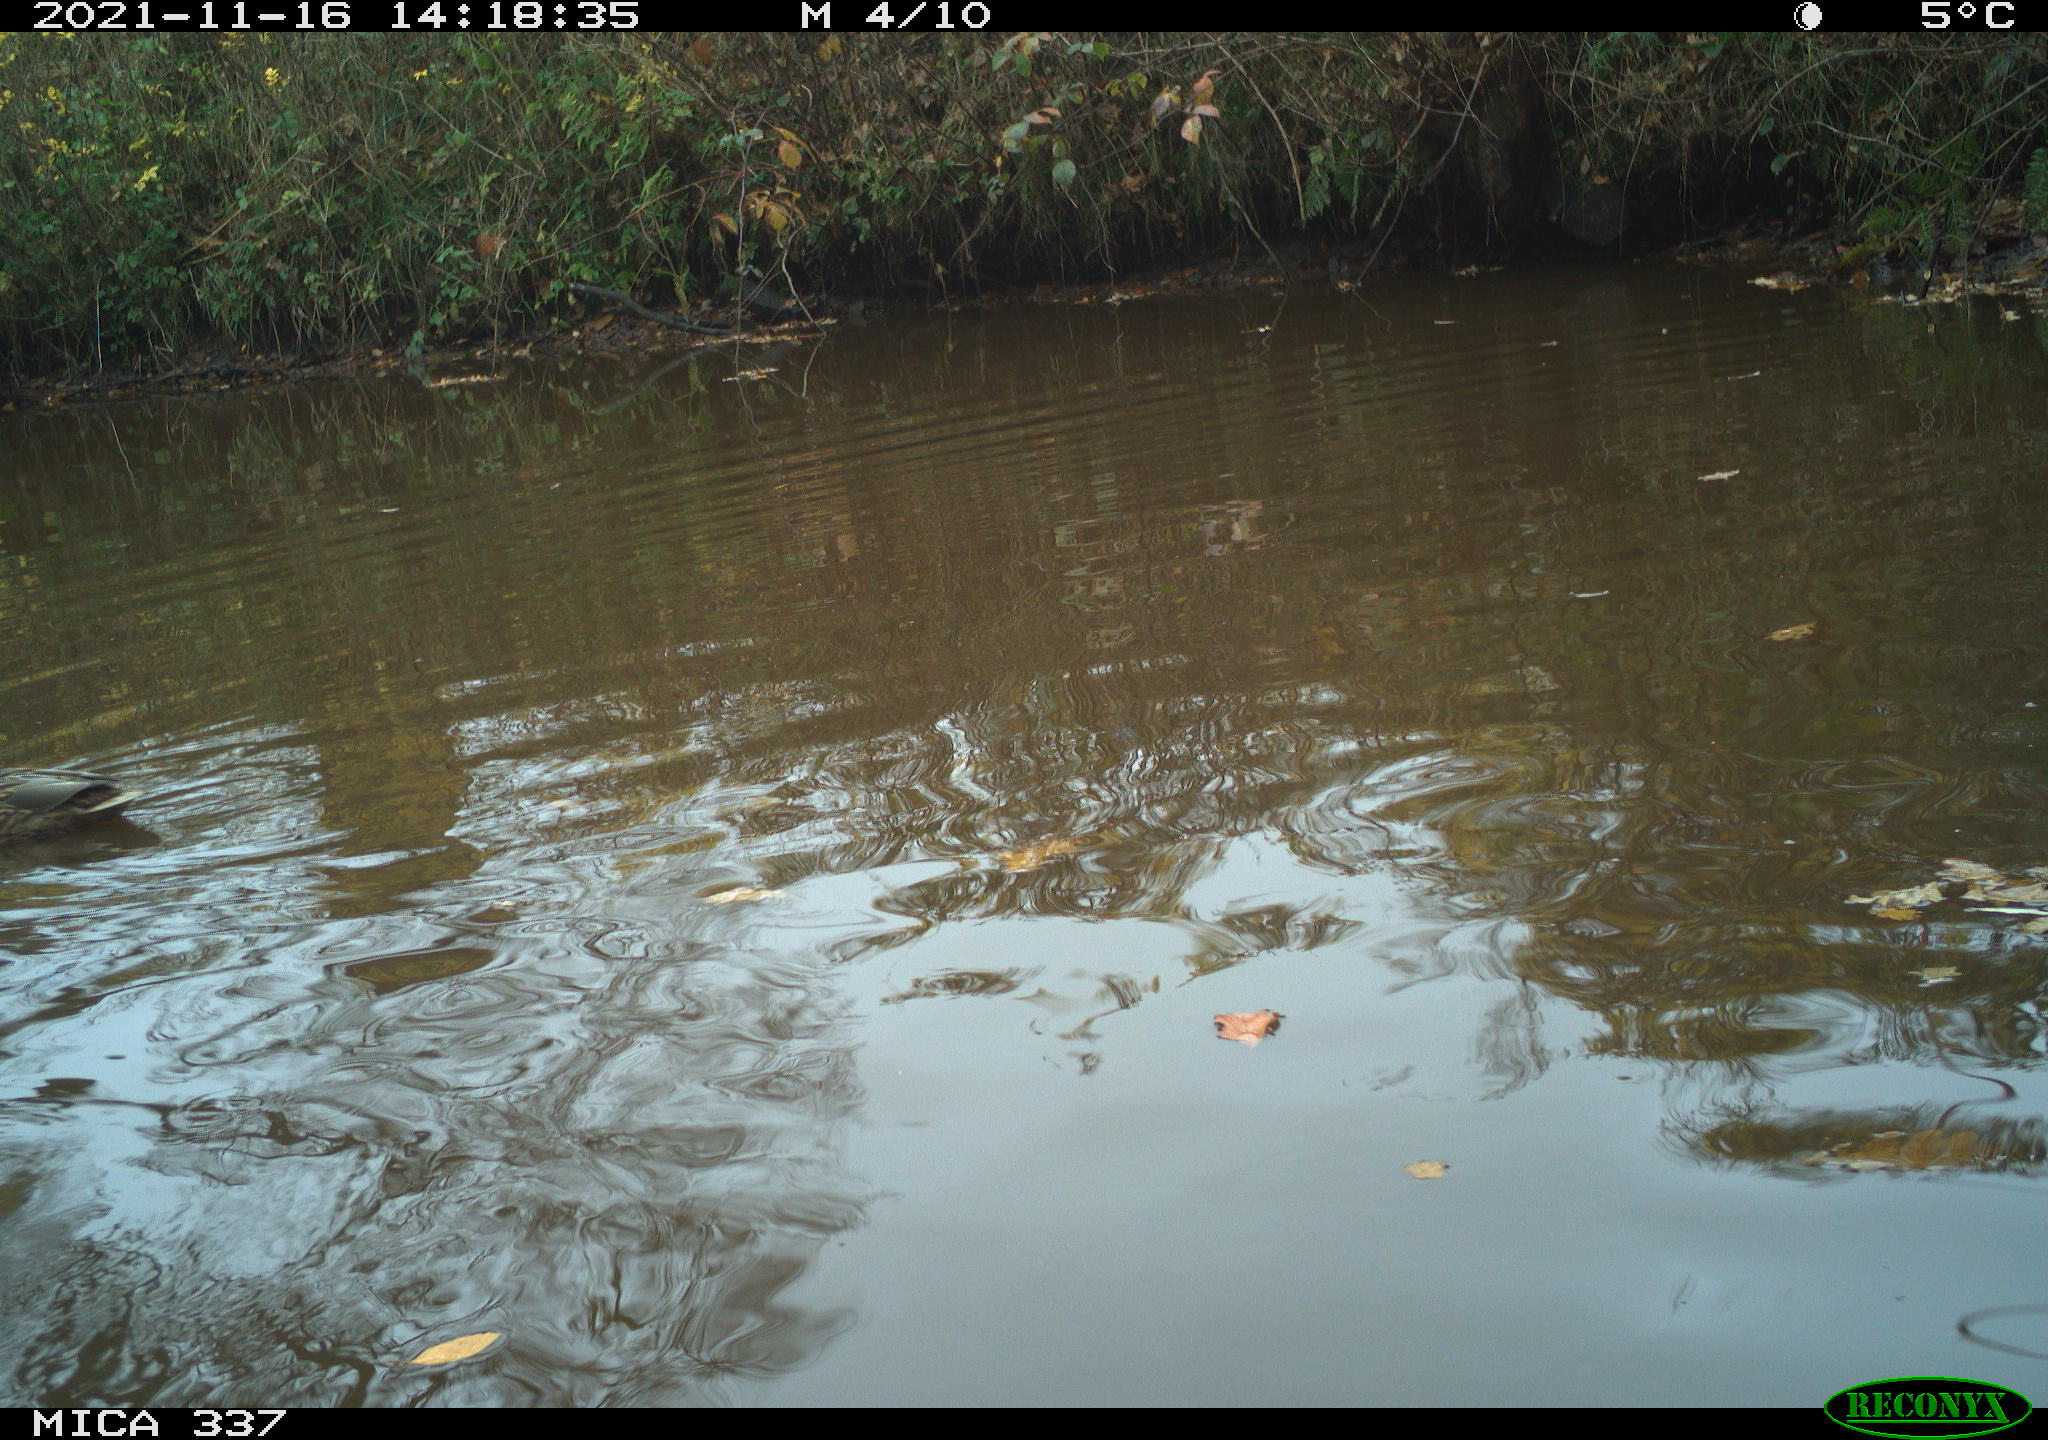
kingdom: Animalia
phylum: Chordata
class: Aves
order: Anseriformes
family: Anatidae
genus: Anas
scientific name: Anas platyrhynchos
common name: Mallard
